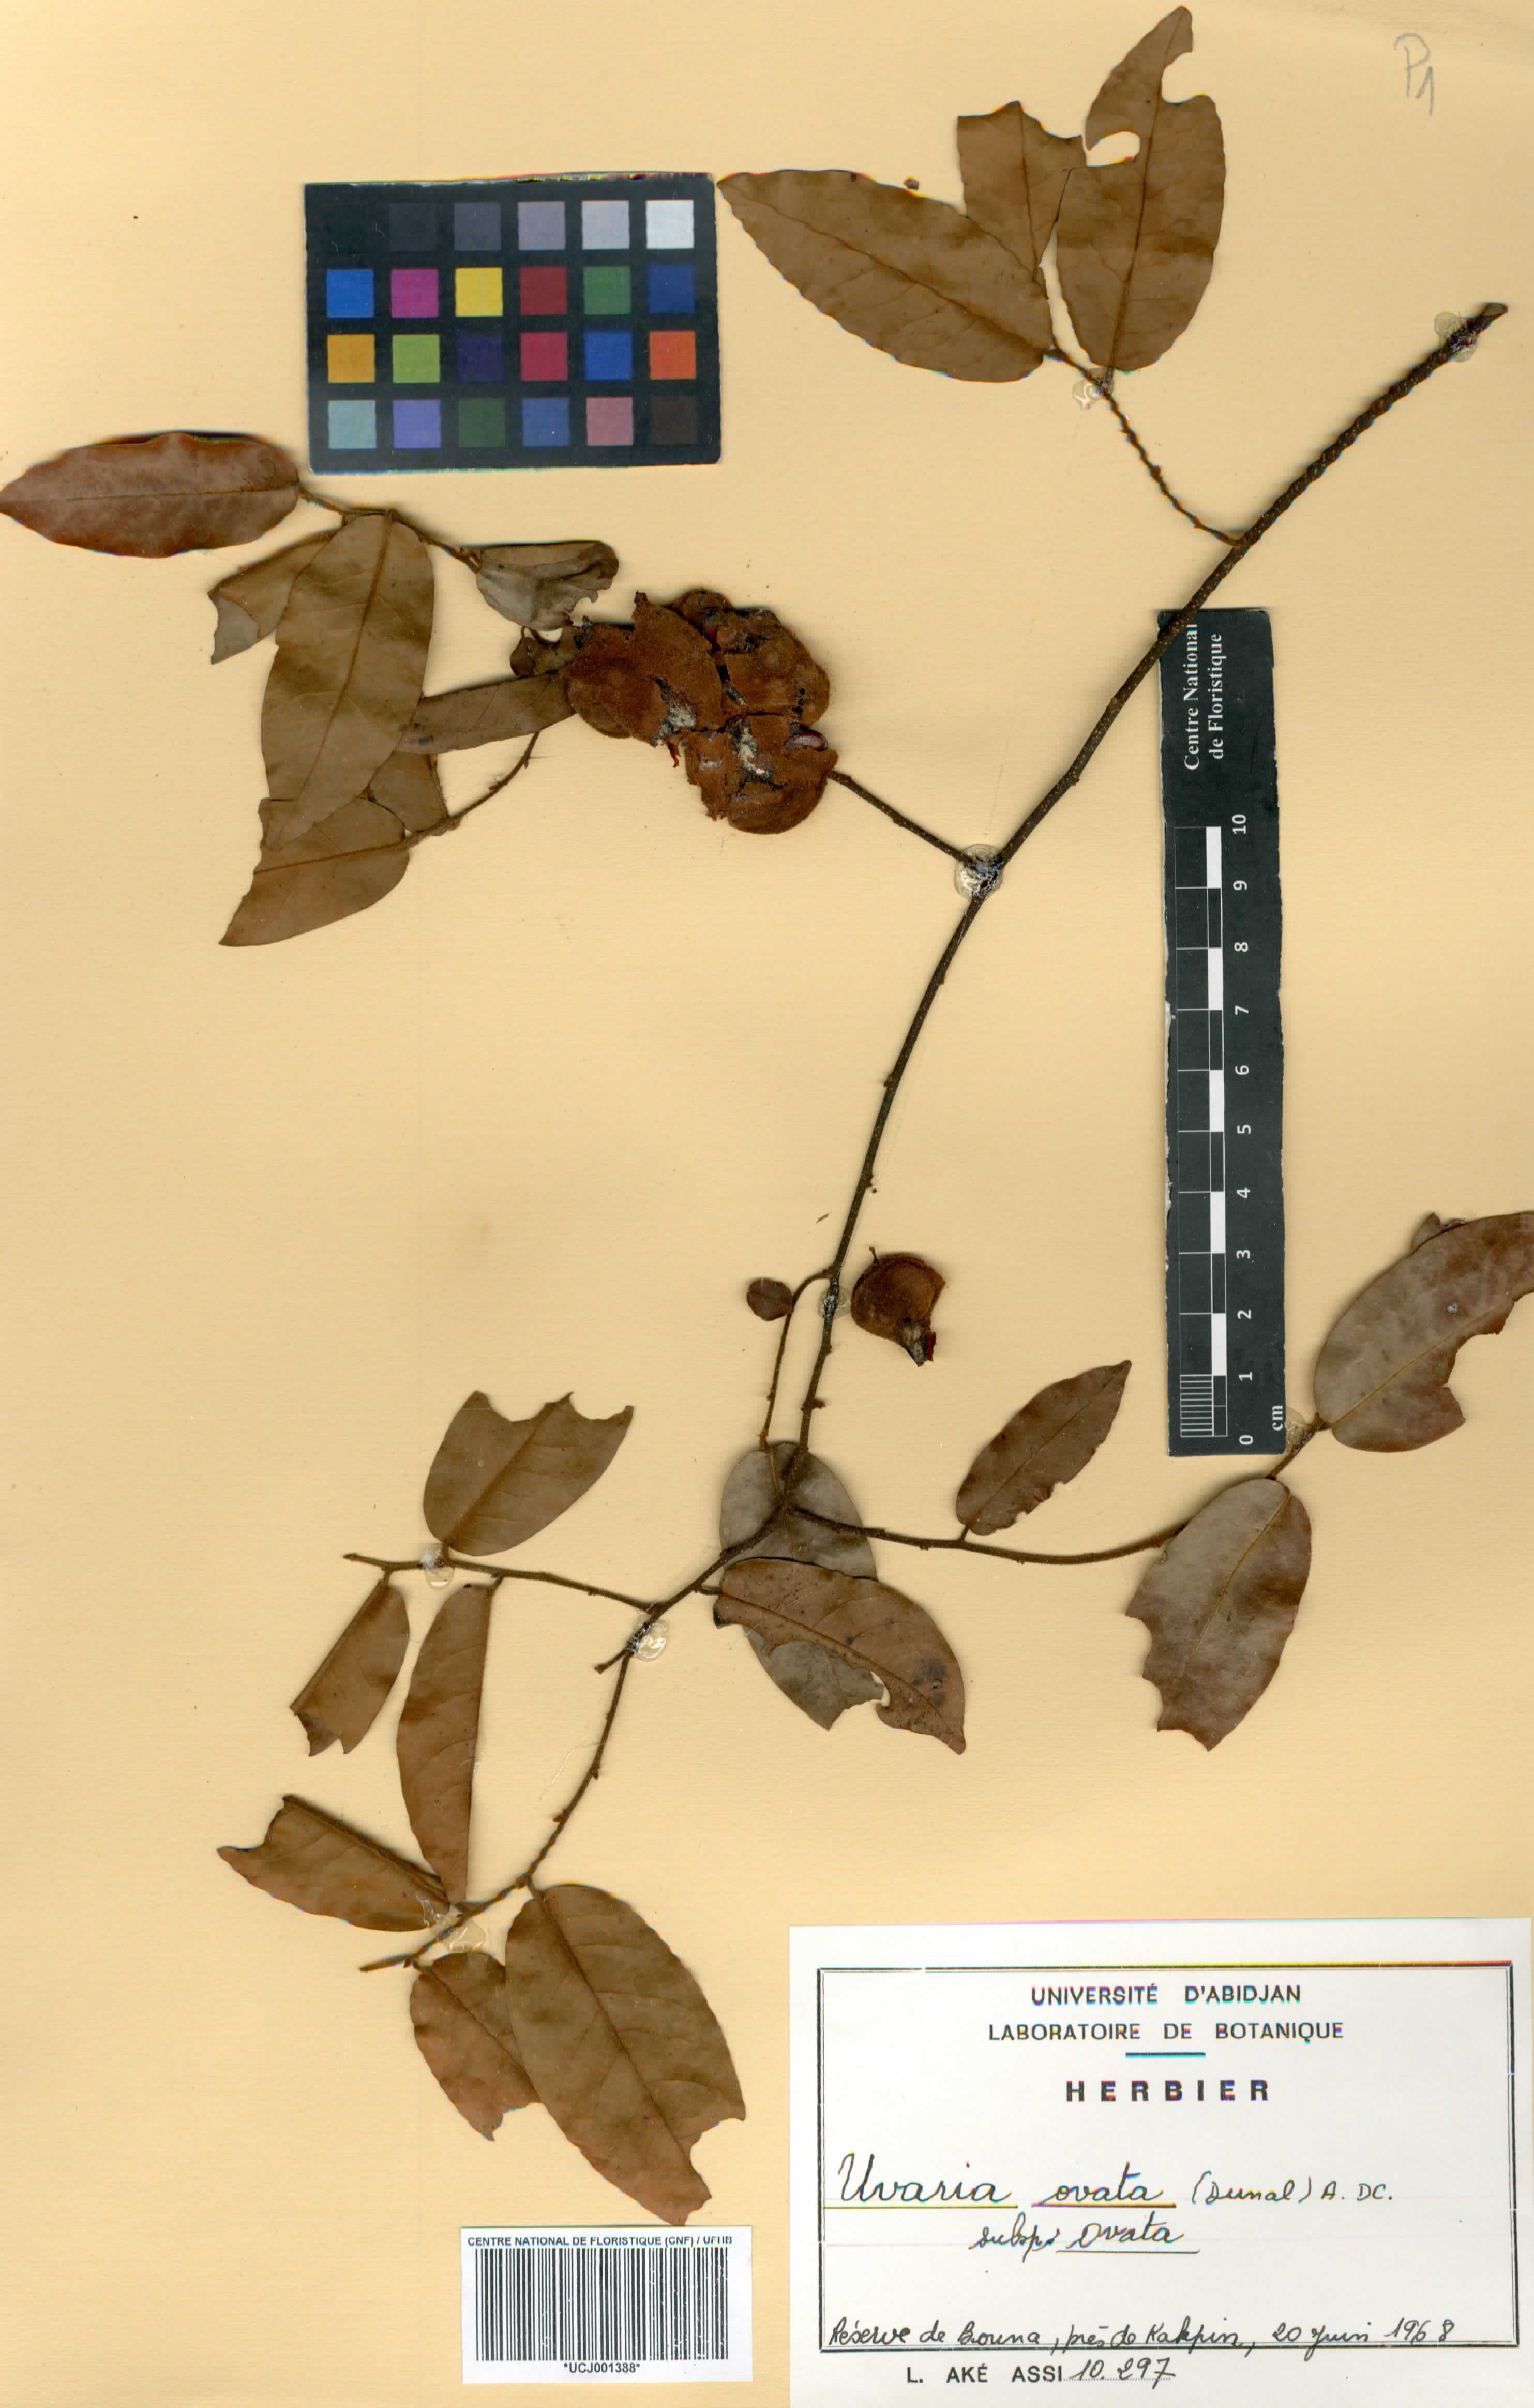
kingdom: Plantae
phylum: Tracheophyta
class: Magnoliopsida
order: Magnoliales
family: Annonaceae
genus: Uvaria
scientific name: Uvaria ovata
